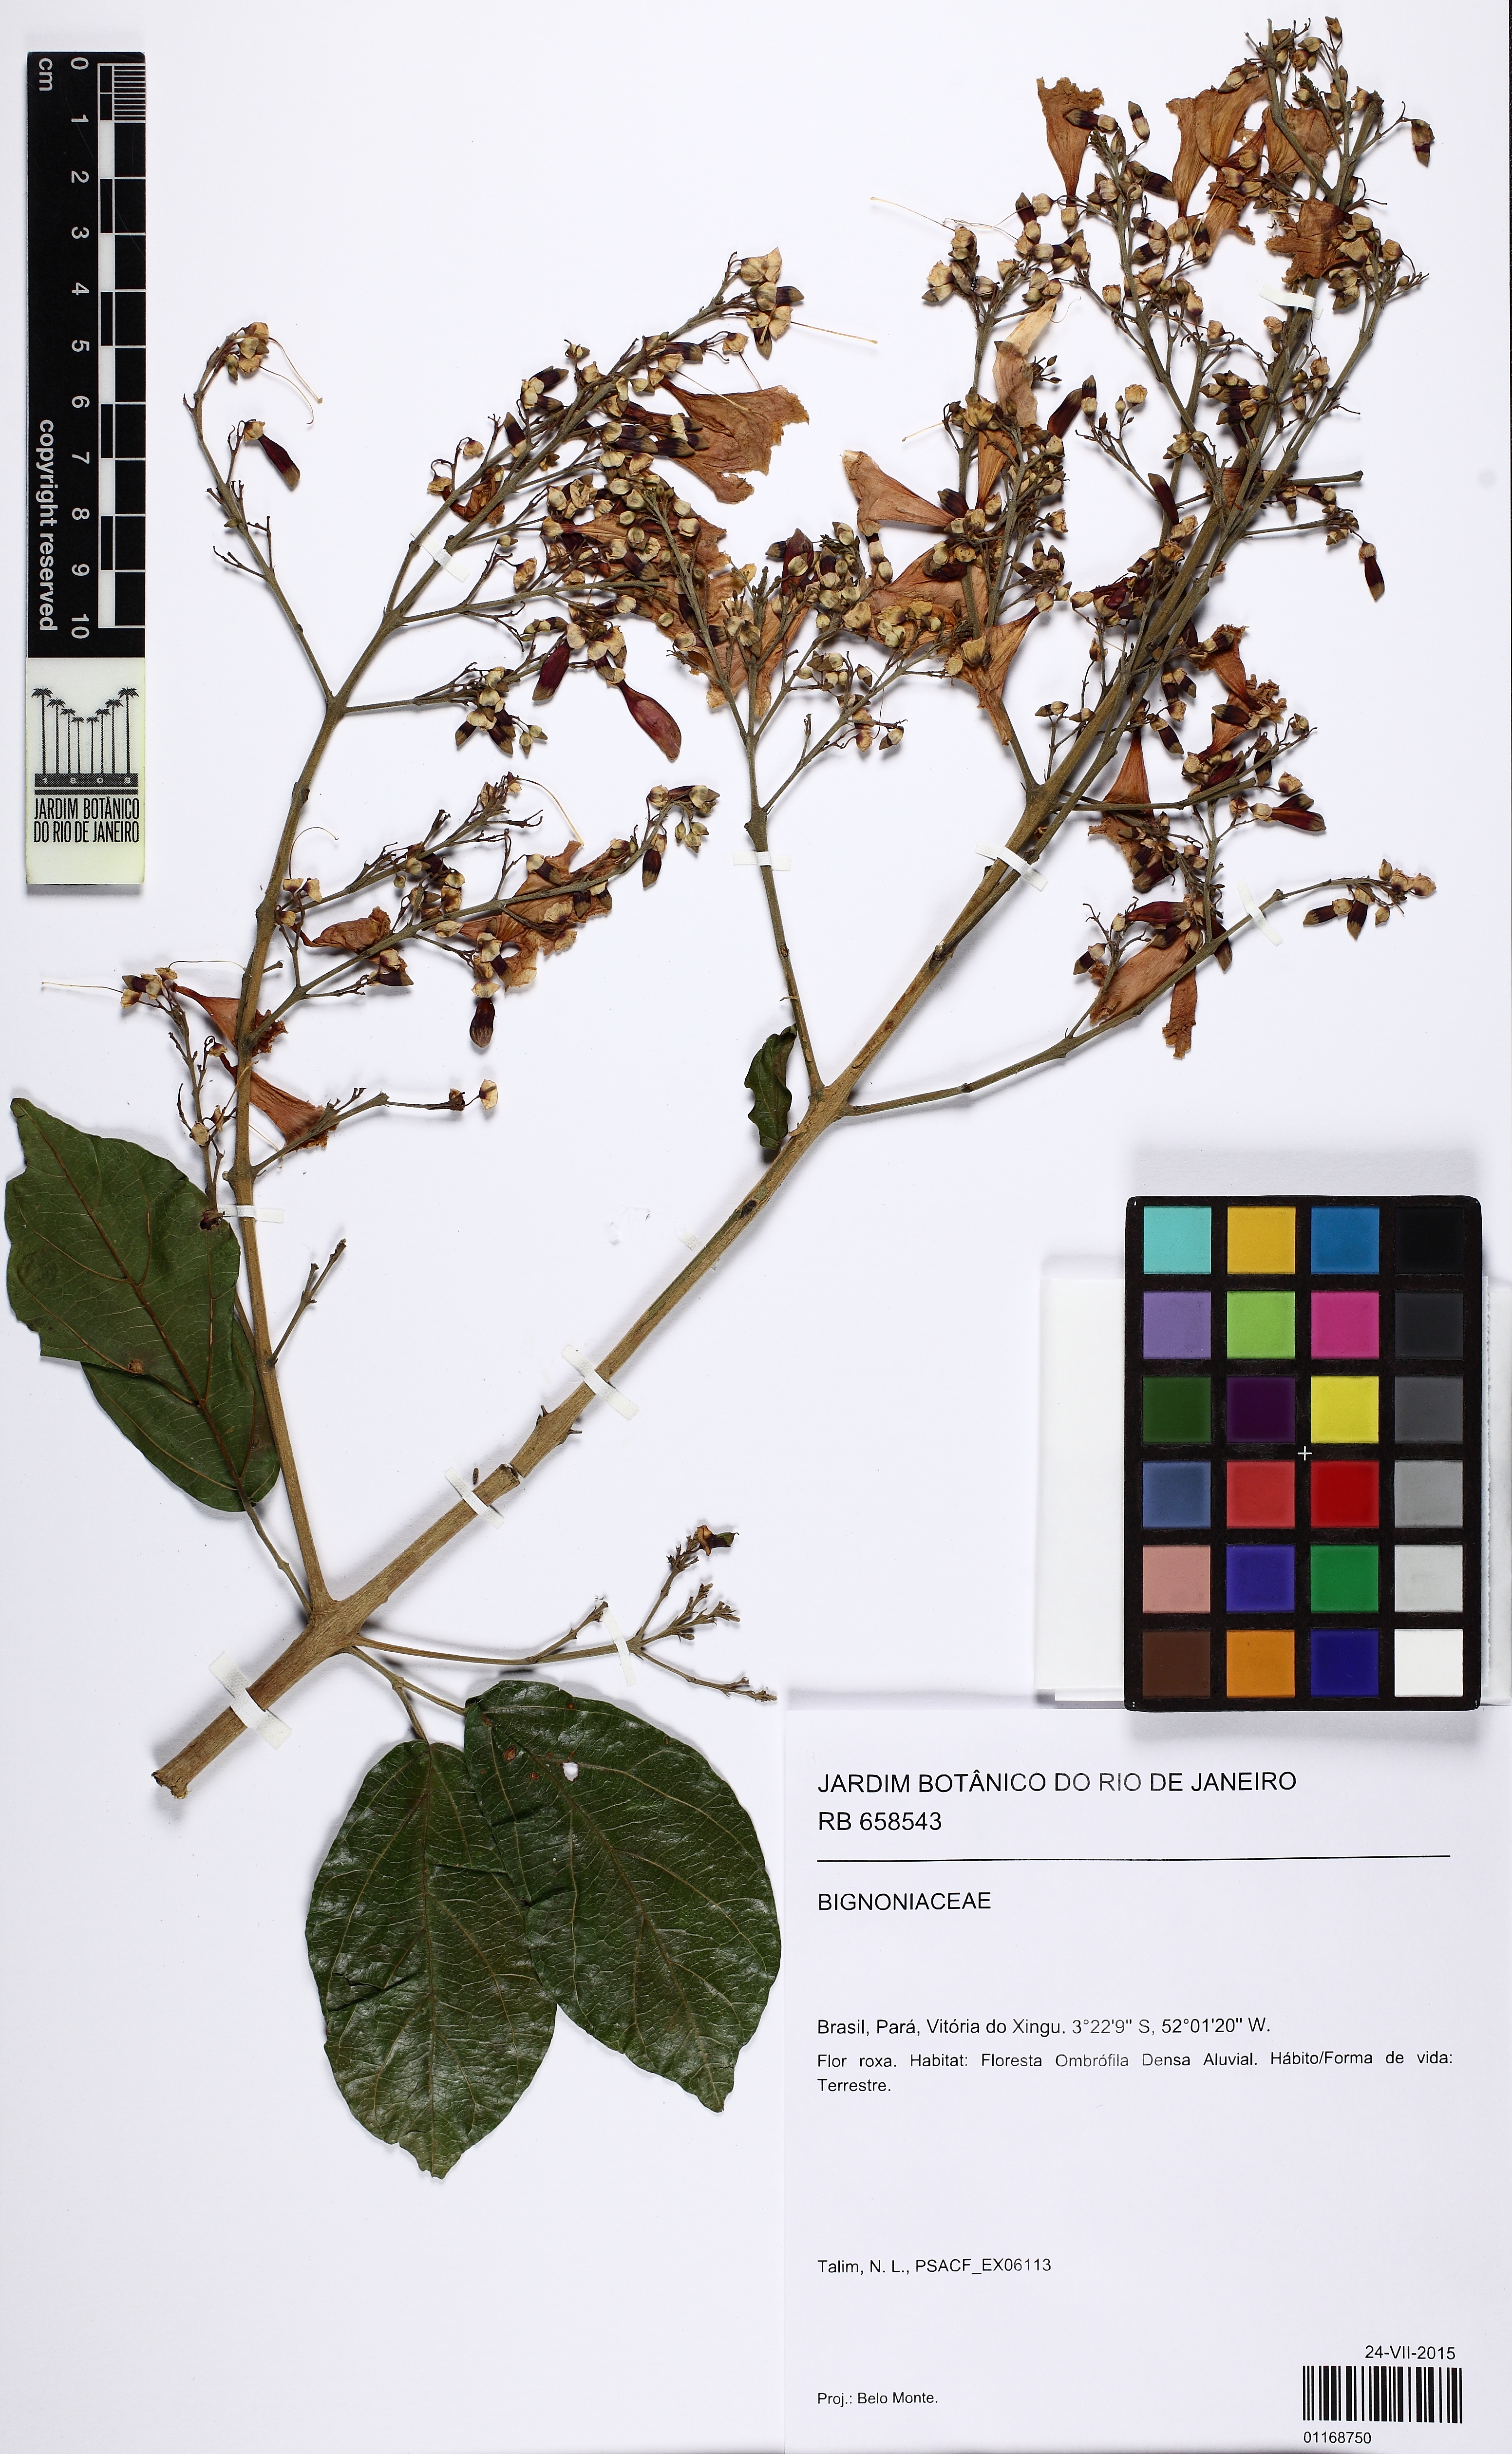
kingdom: Plantae
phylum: Tracheophyta
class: Magnoliopsida
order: Lamiales
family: Bignoniaceae
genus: Fridericia
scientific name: Fridericia
